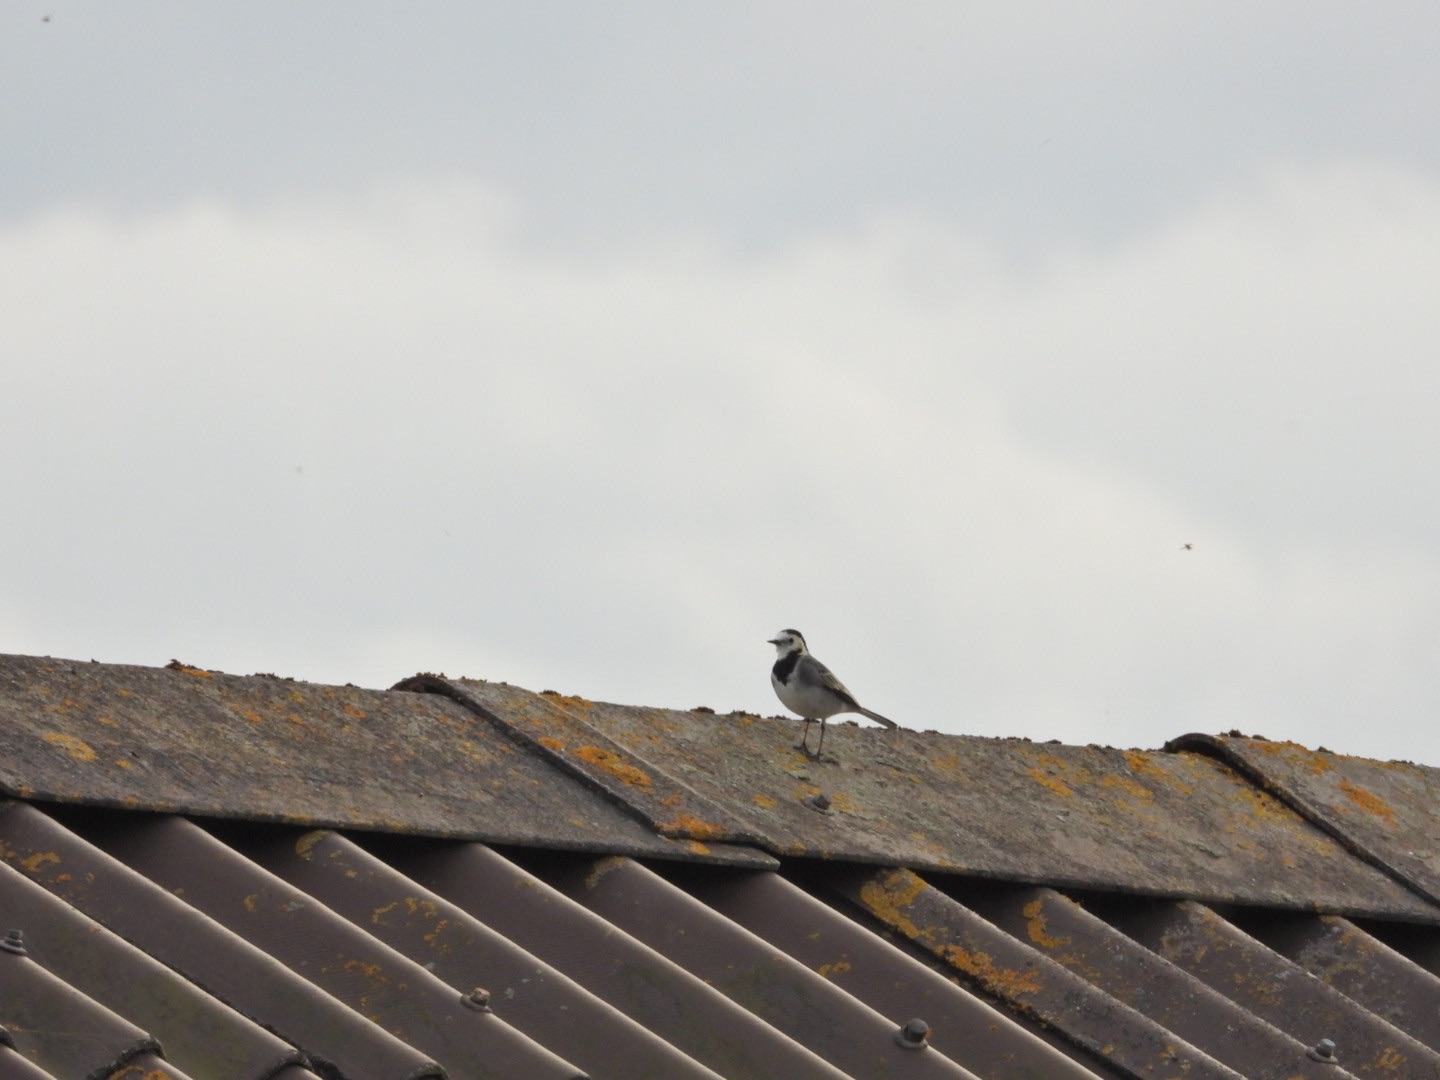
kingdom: Animalia
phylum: Chordata
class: Aves
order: Passeriformes
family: Motacillidae
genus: Motacilla
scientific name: Motacilla alba
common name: Hvid vipstjert
